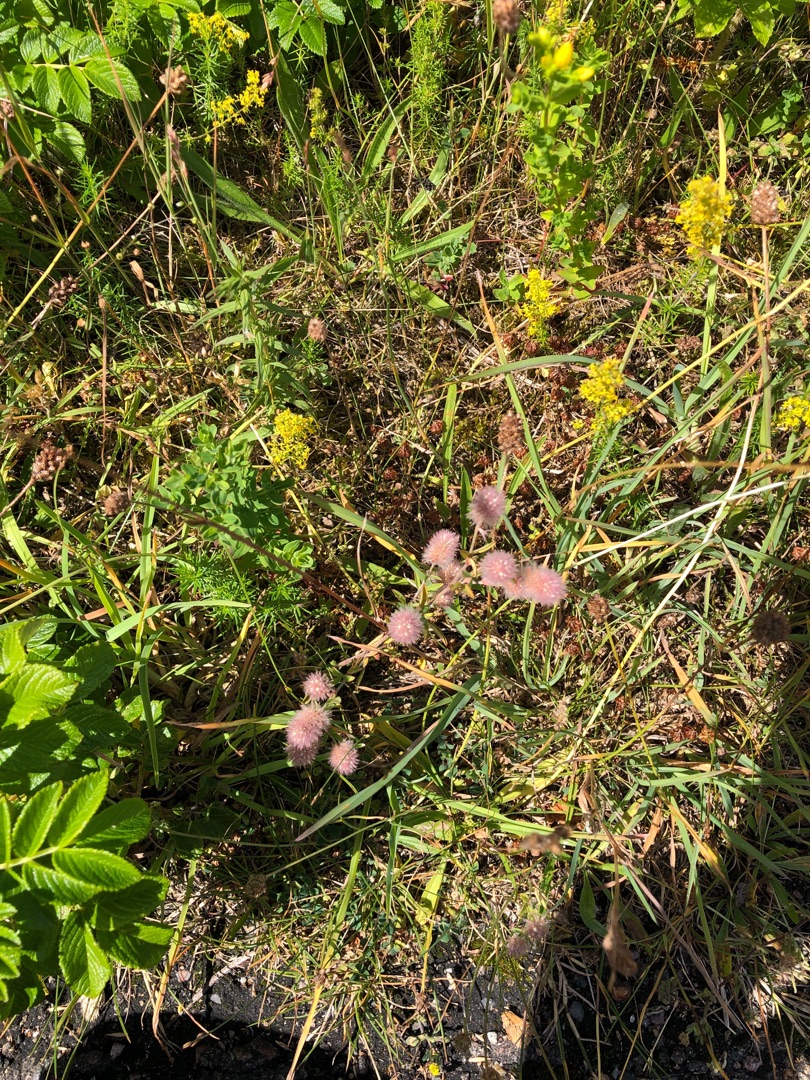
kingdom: Plantae
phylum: Tracheophyta
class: Magnoliopsida
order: Fabales
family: Fabaceae
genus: Trifolium
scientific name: Trifolium arvense
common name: Hare-kløver
